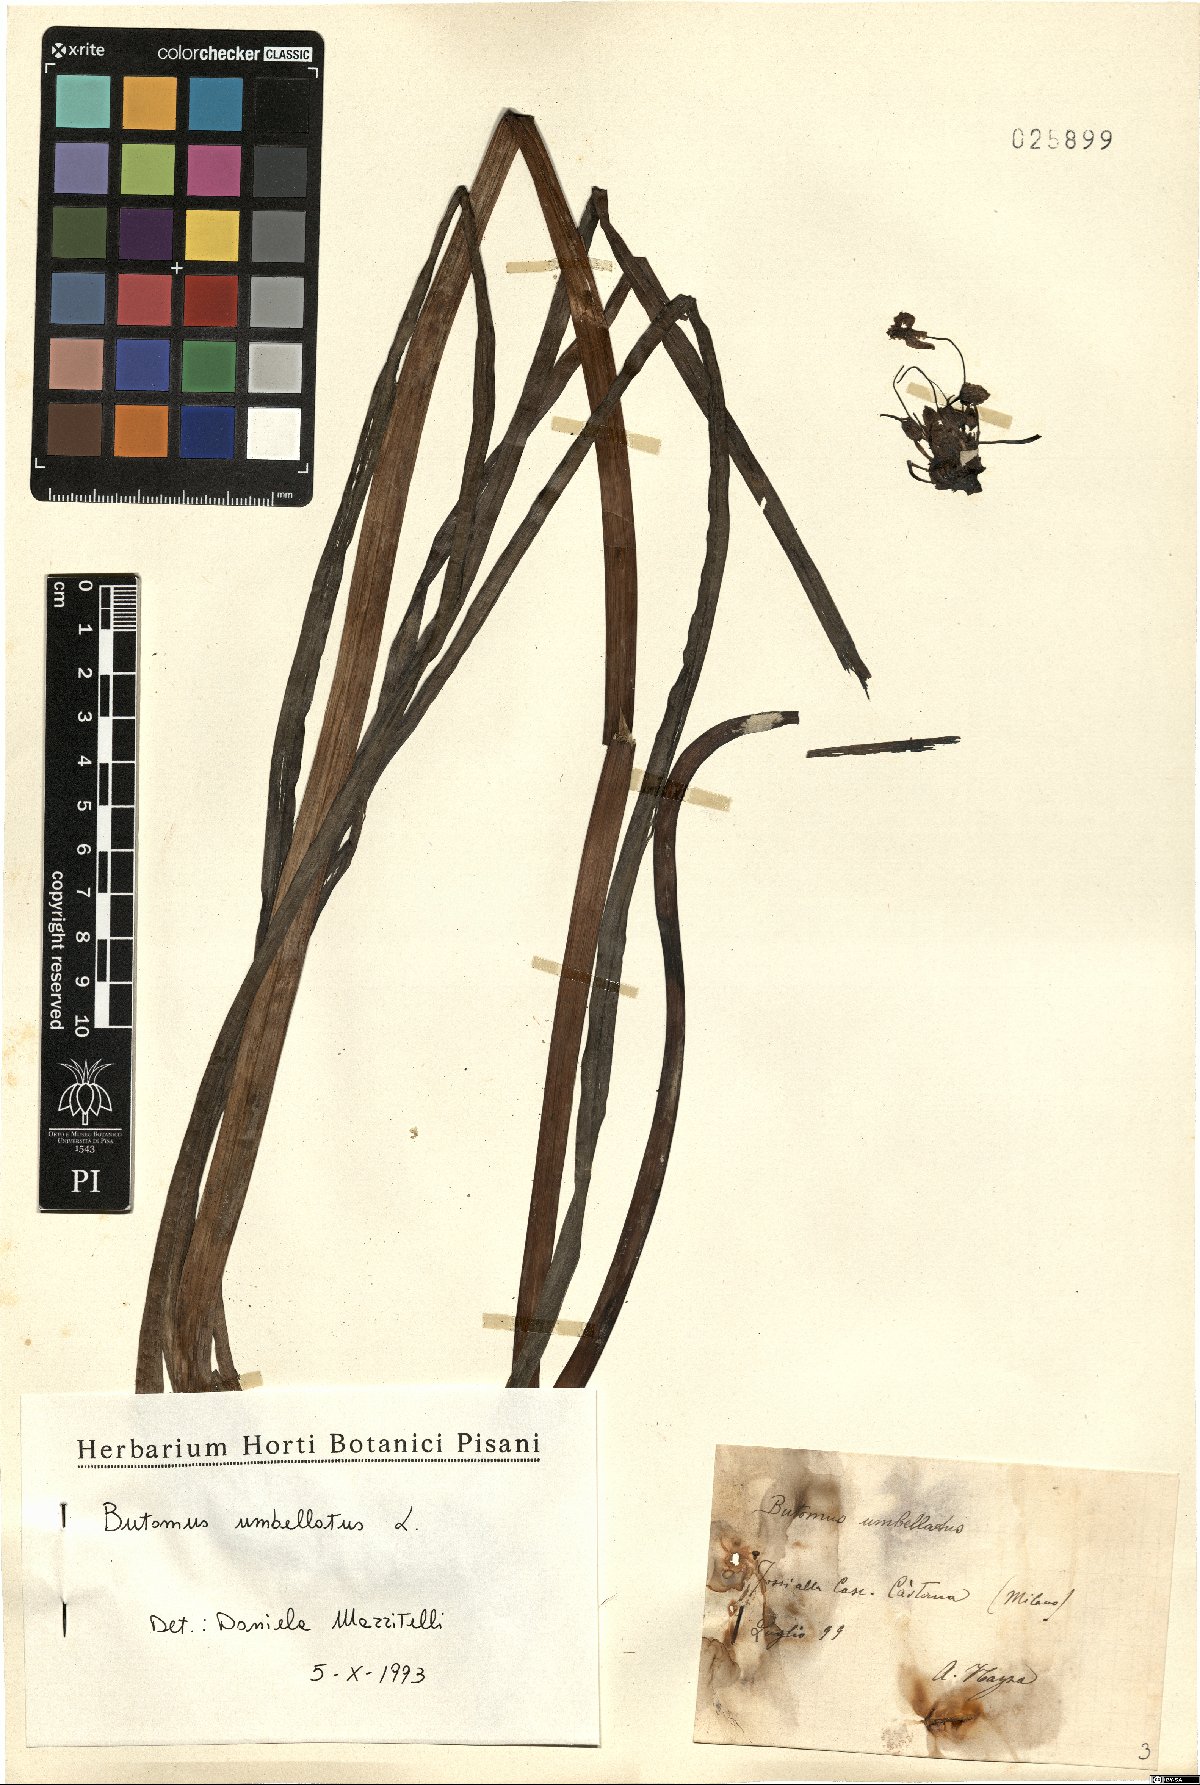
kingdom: Plantae
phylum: Tracheophyta
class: Liliopsida
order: Alismatales
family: Butomaceae
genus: Butomus
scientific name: Butomus umbellatus
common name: Flowering-rush
